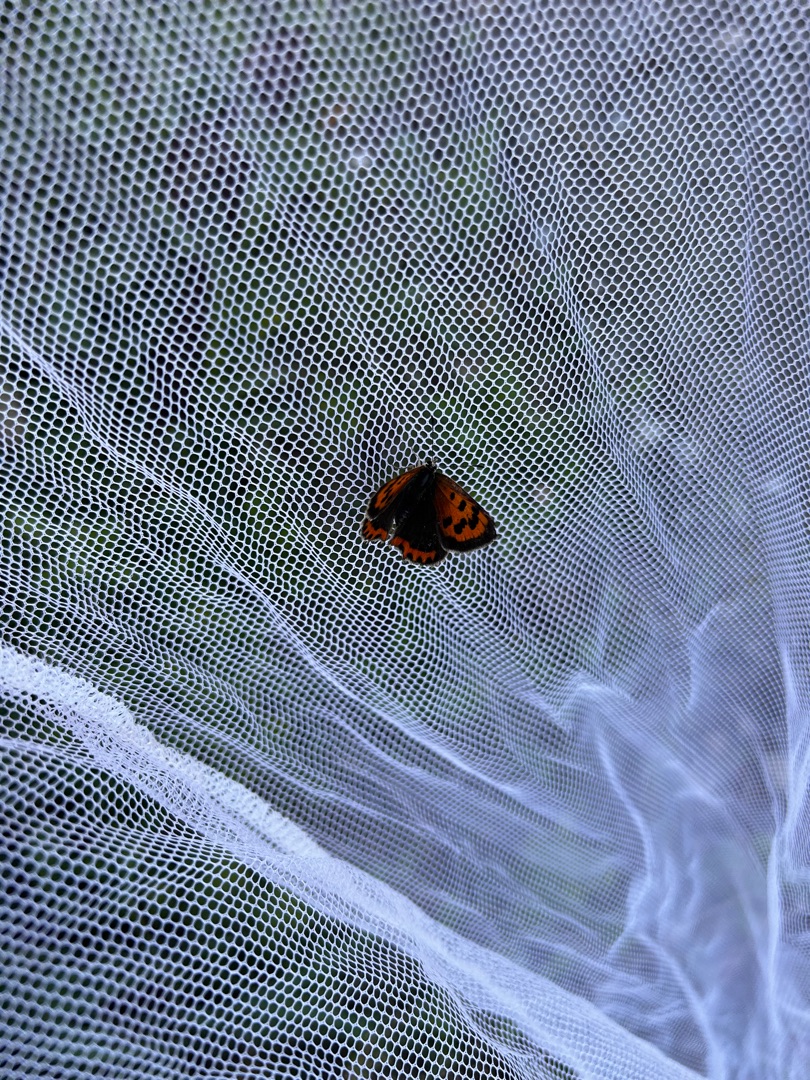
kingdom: Animalia
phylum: Arthropoda
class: Insecta
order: Lepidoptera
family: Lycaenidae
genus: Lycaena
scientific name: Lycaena phlaeas
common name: Lille ildfugl
